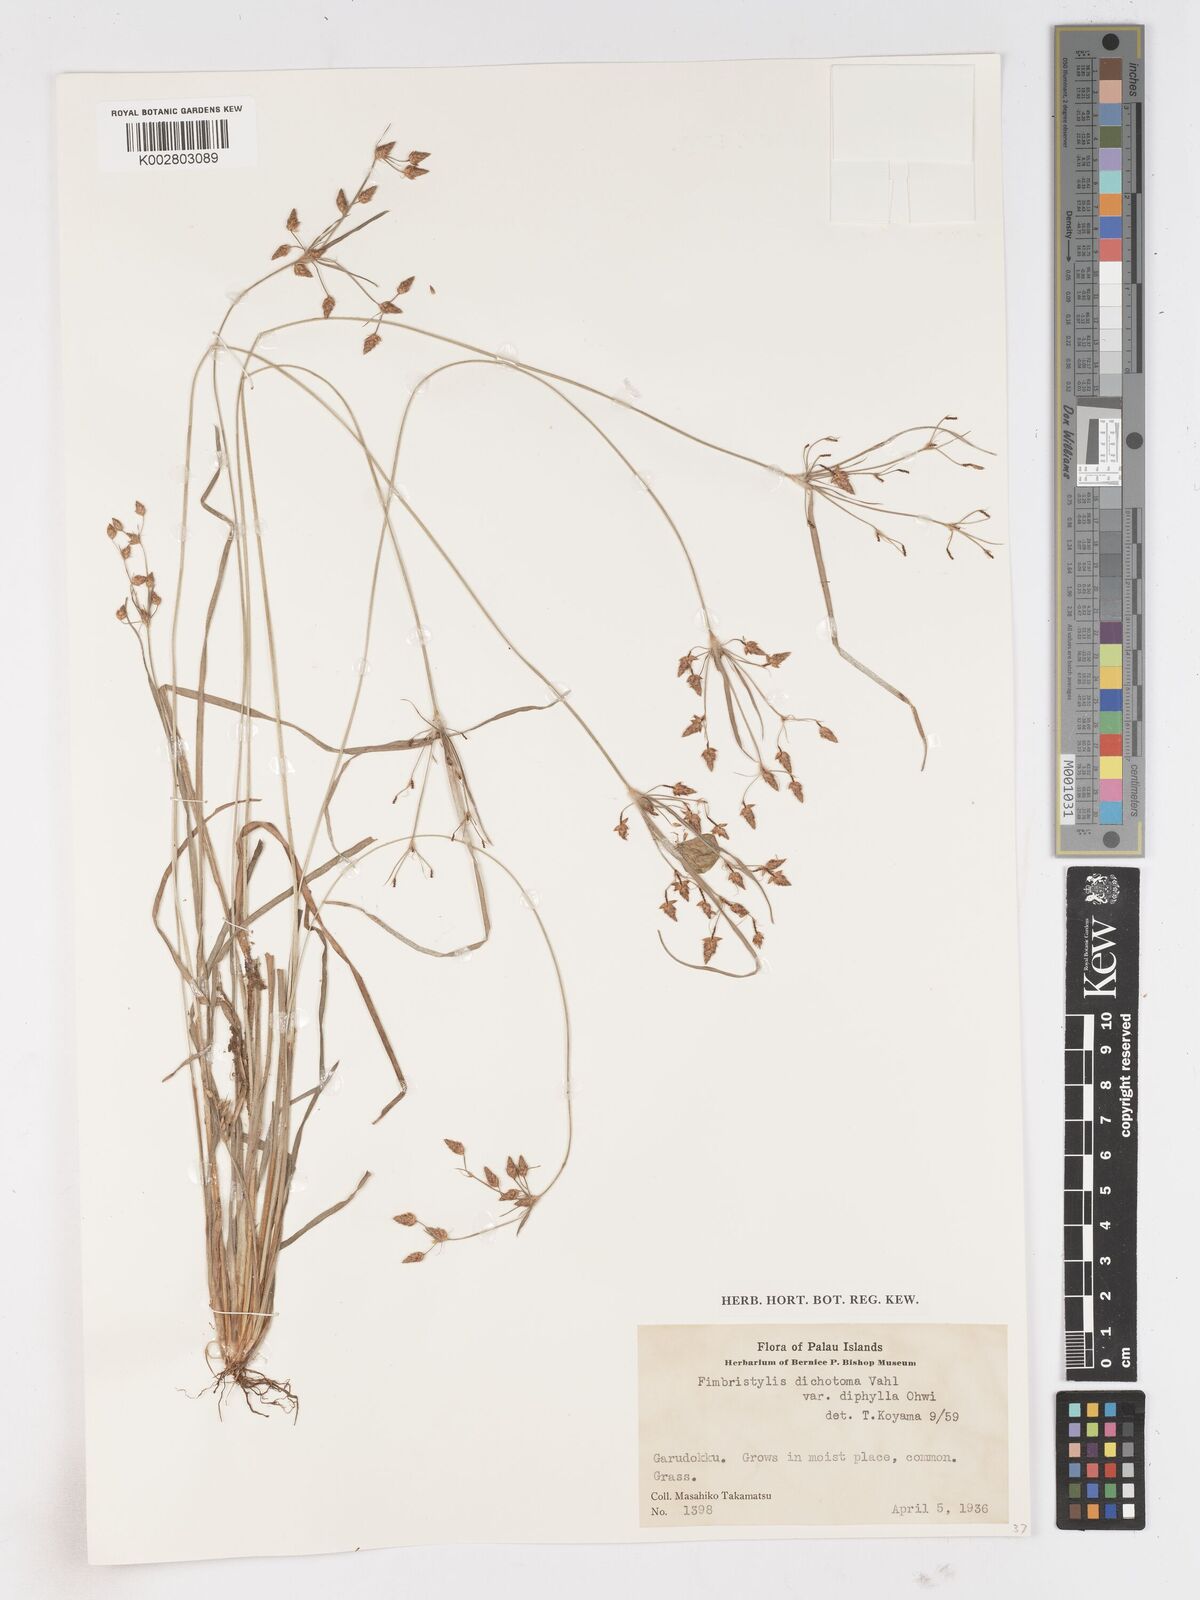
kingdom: Plantae
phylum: Tracheophyta
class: Liliopsida
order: Poales
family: Cyperaceae
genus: Fimbristylis
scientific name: Fimbristylis dichotoma
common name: Forked fimbry
